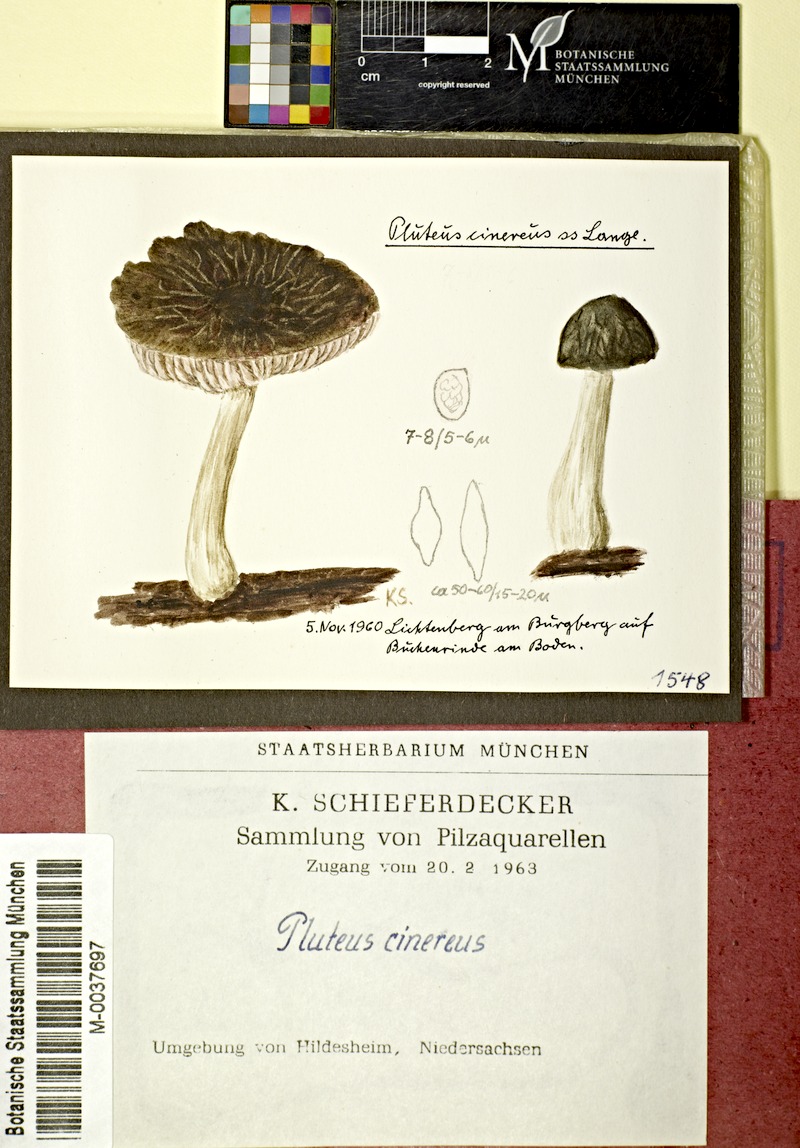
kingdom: Fungi
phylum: Basidiomycota
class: Agaricomycetes
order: Agaricales
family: Pluteaceae
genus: Pluteus
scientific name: Pluteus thomsonii
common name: Veined shield
